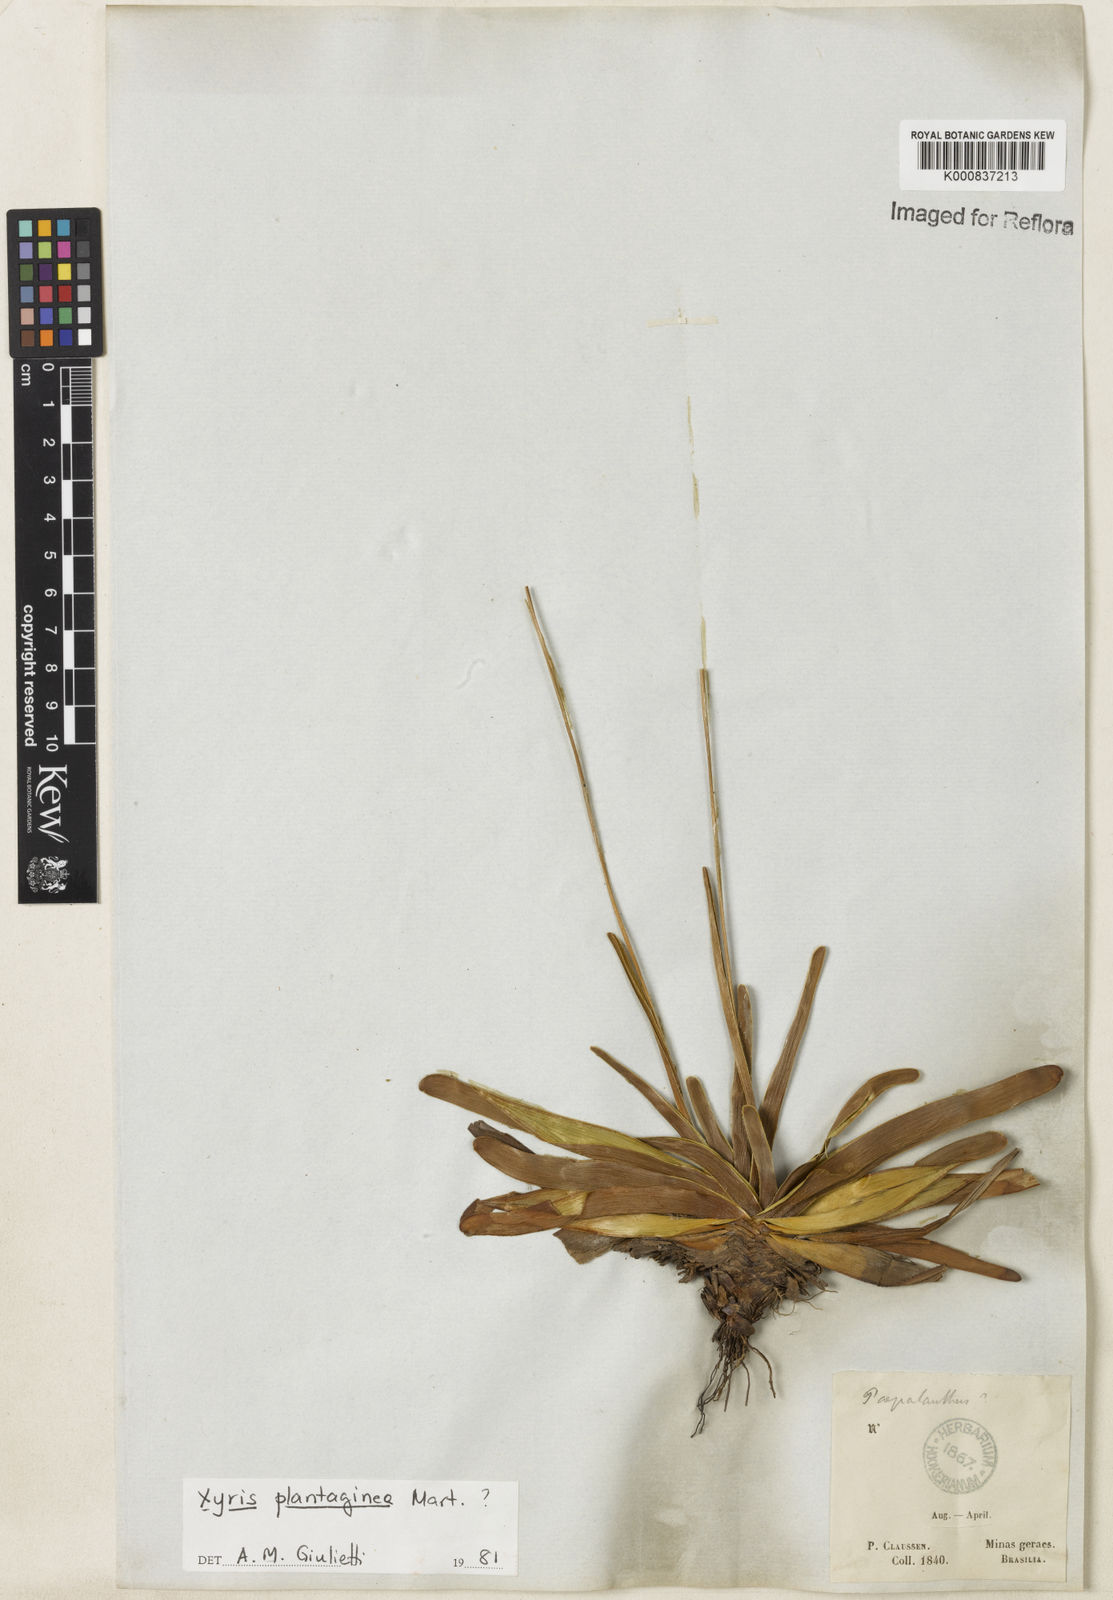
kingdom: Plantae
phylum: Tracheophyta
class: Liliopsida
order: Poales
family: Xyridaceae
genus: Xyris
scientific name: Xyris plantaginea
